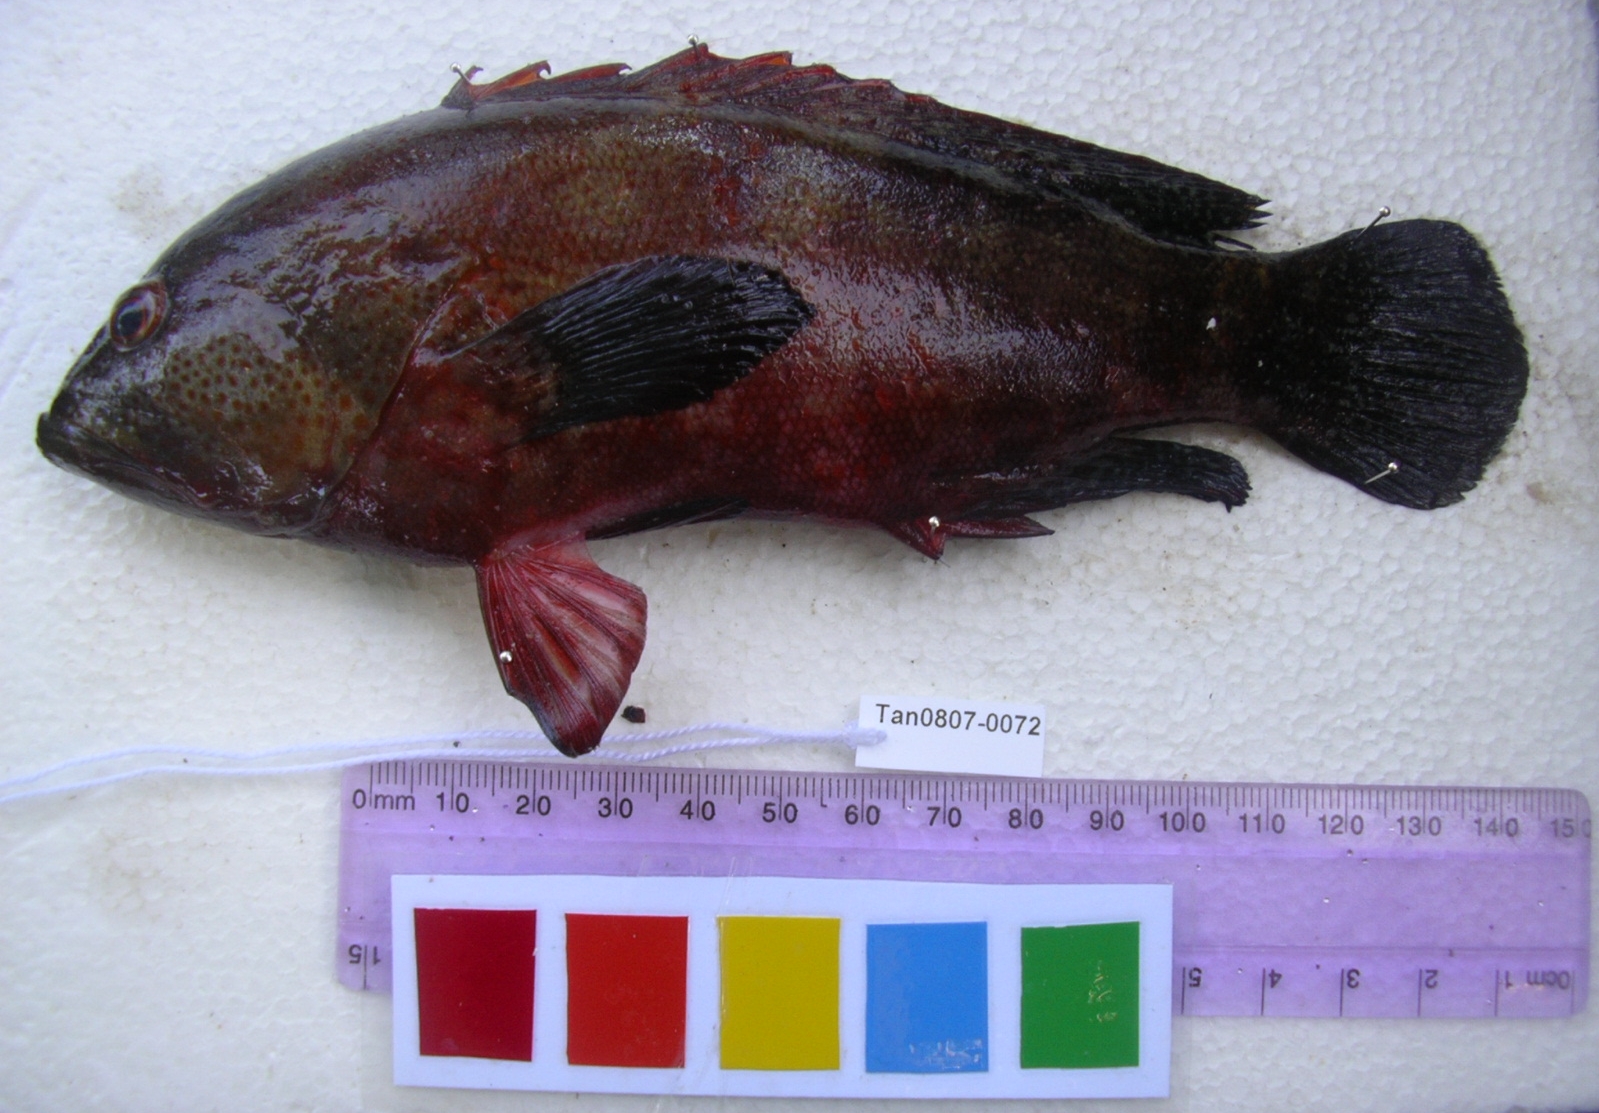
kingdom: Animalia
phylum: Chordata
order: Perciformes
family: Serranidae
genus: Cephalopholis
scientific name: Cephalopholis nigripinnis
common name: Duskyfin hind
